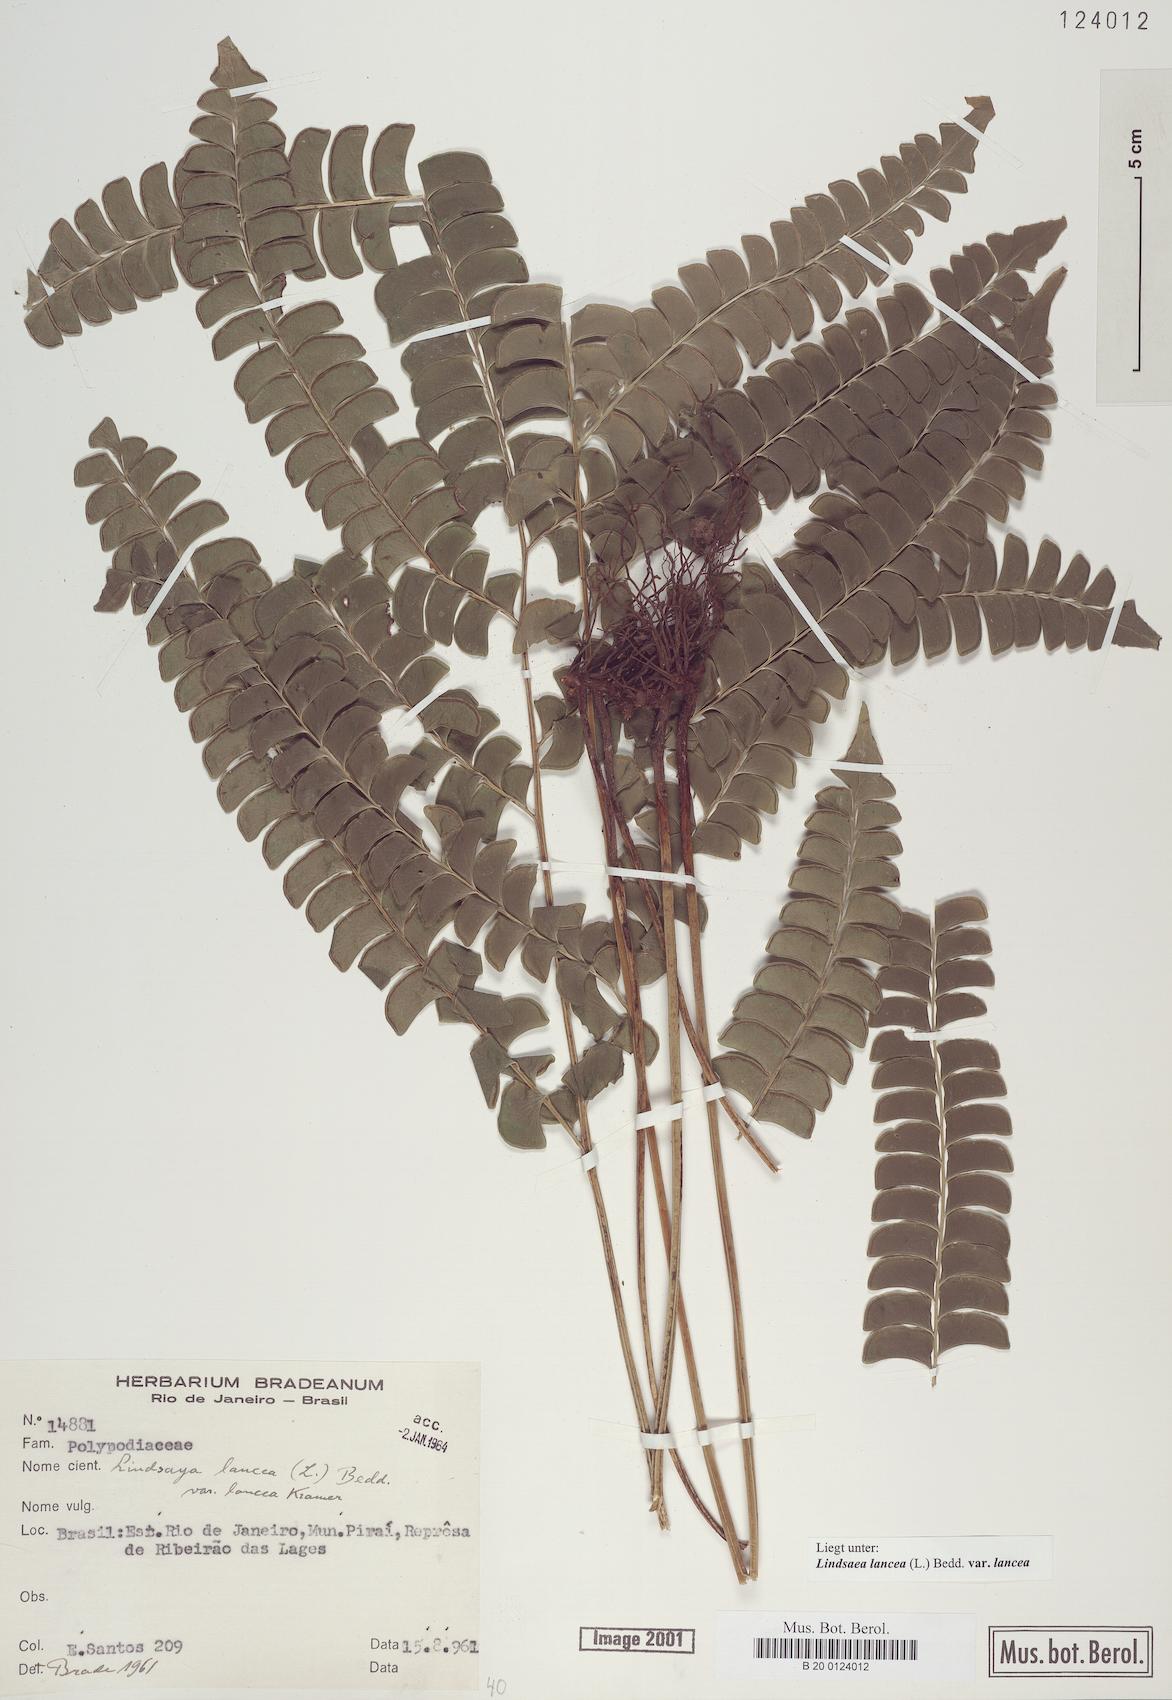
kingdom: Plantae
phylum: Tracheophyta
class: Polypodiopsida
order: Polypodiales
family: Lindsaeaceae
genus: Lindsaea
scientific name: Lindsaea lancea
